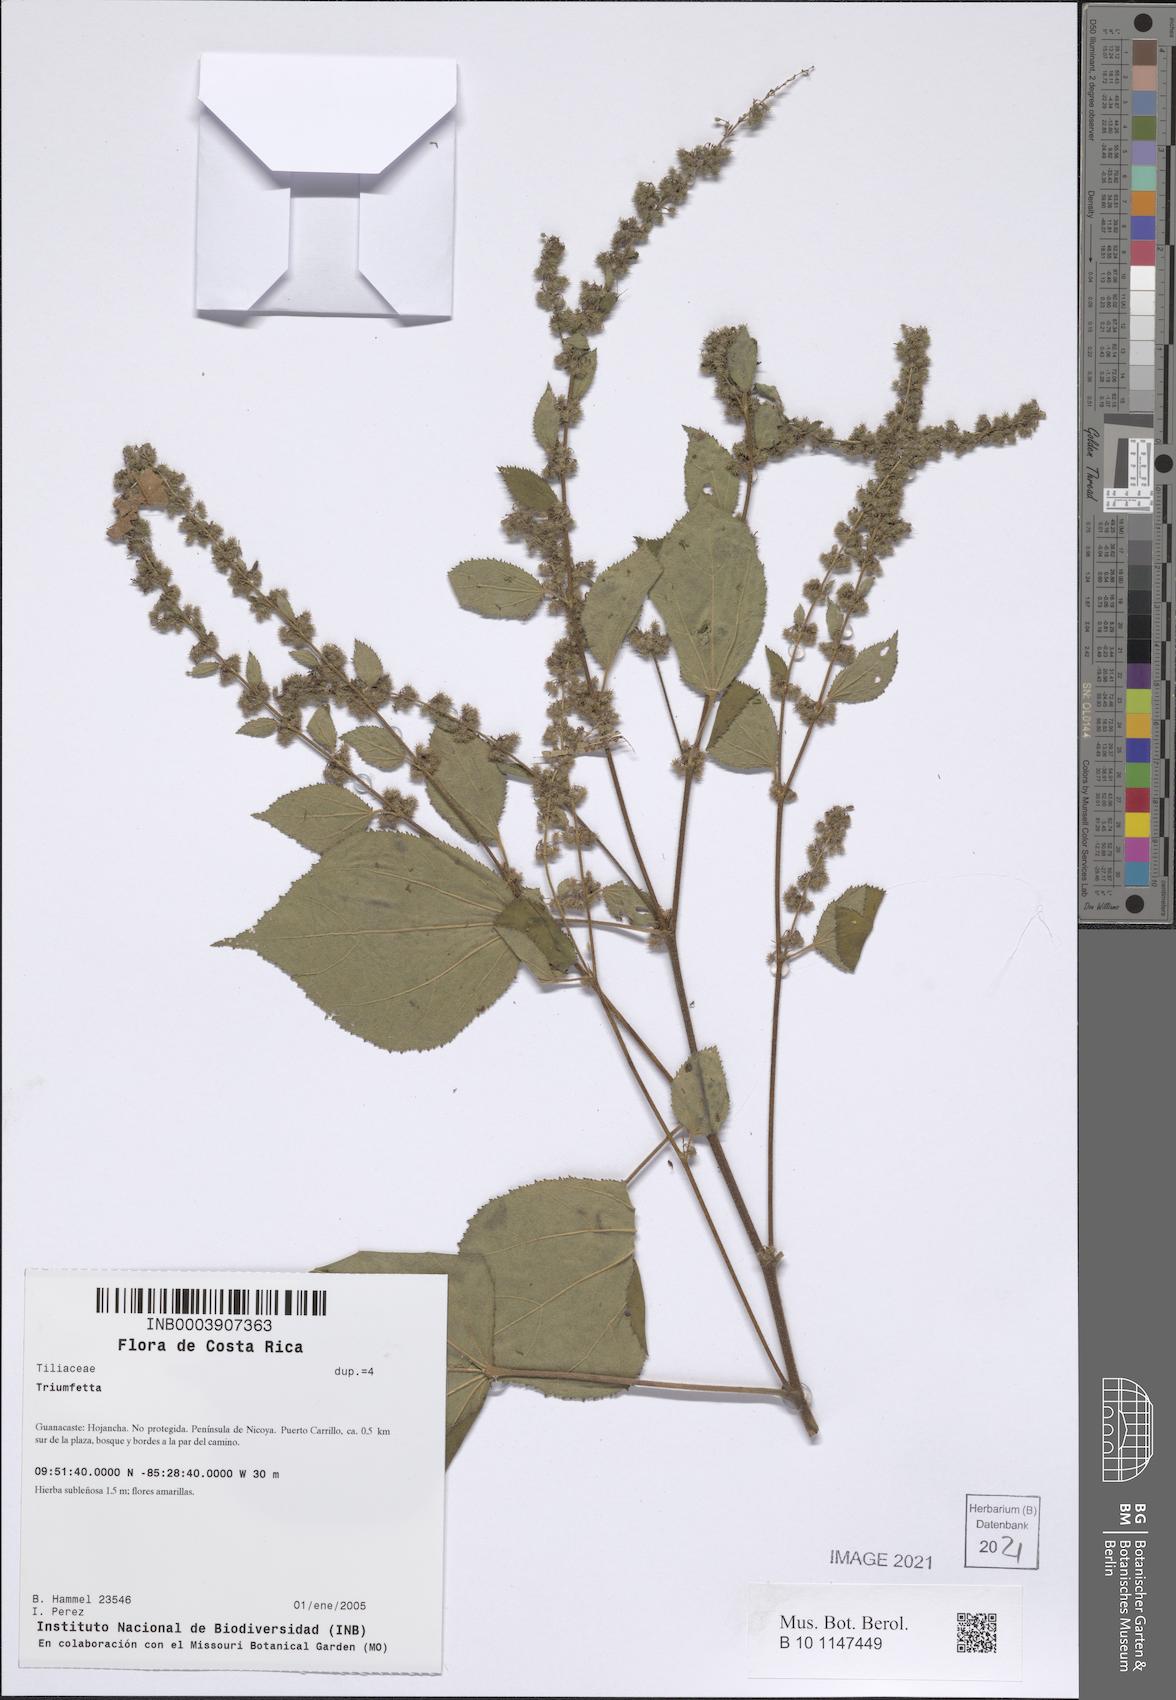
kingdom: Plantae
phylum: Tracheophyta
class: Magnoliopsida
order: Malvales
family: Malvaceae
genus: Triumfetta
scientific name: Triumfetta
